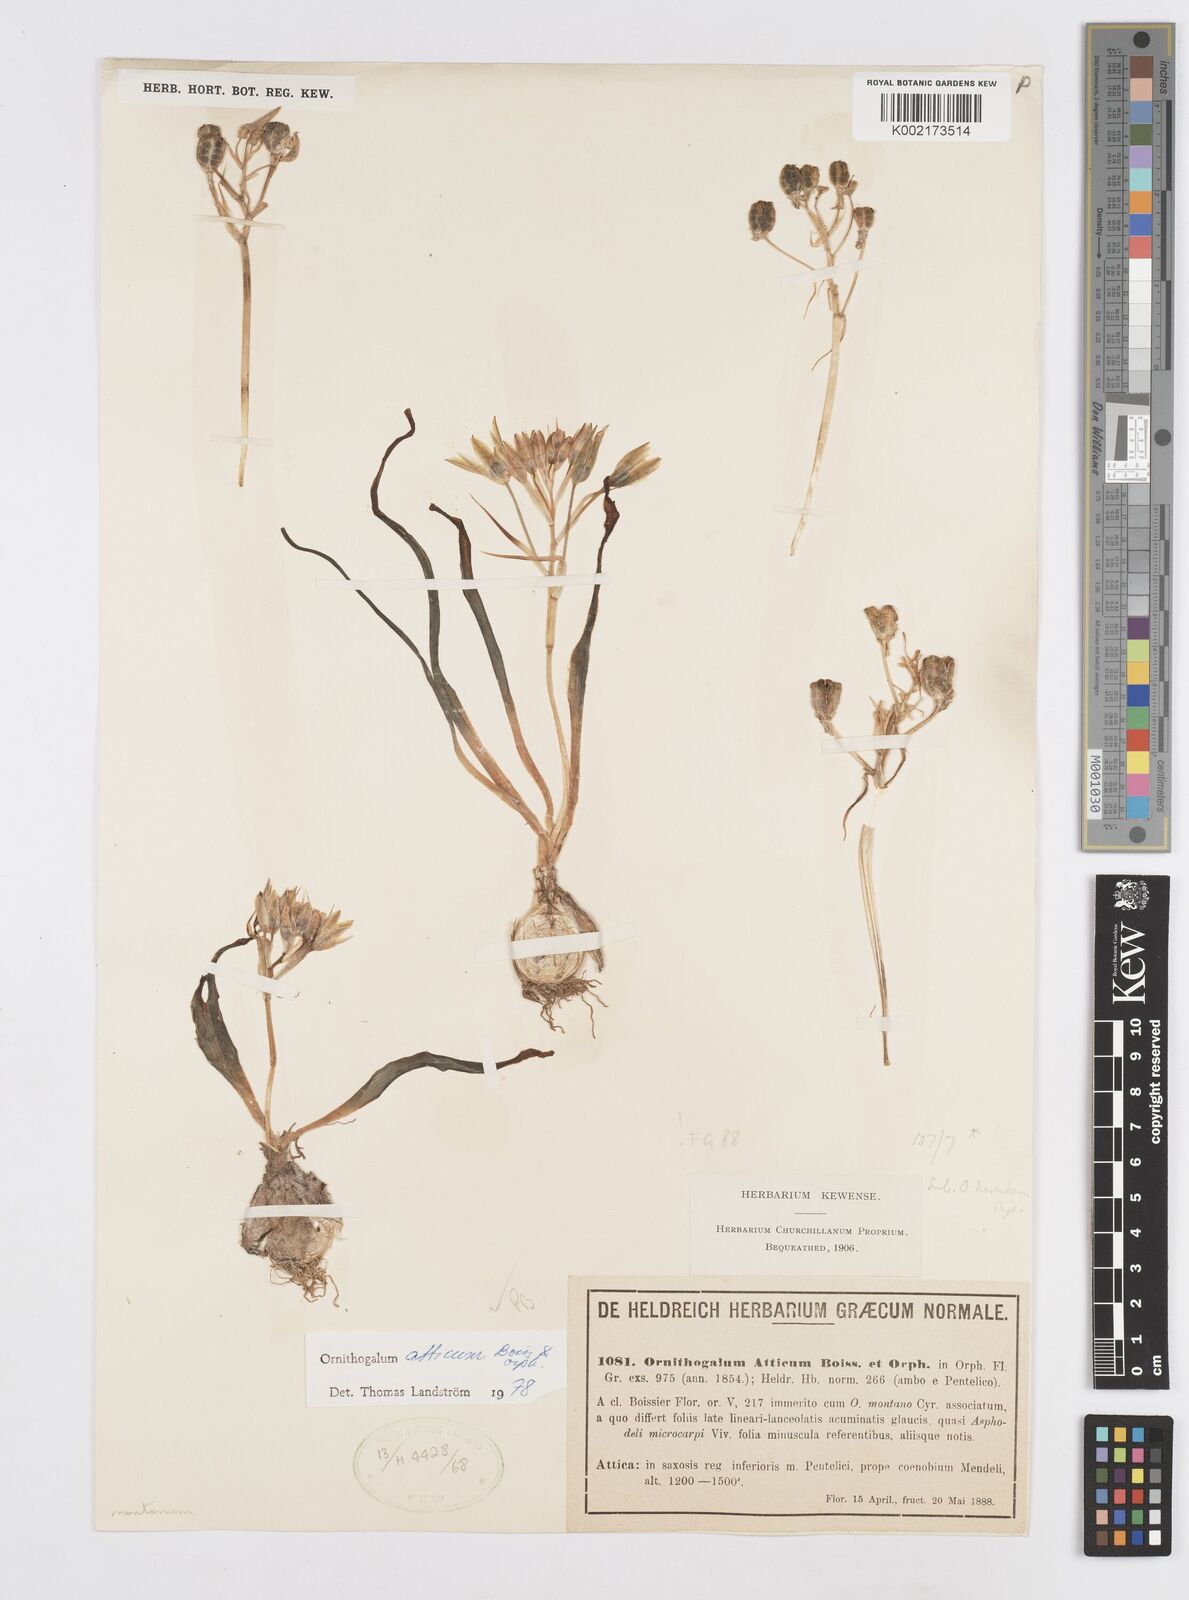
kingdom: Plantae
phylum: Tracheophyta
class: Liliopsida
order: Asparagales
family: Asparagaceae
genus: Ornithogalum
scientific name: Ornithogalum atticum
